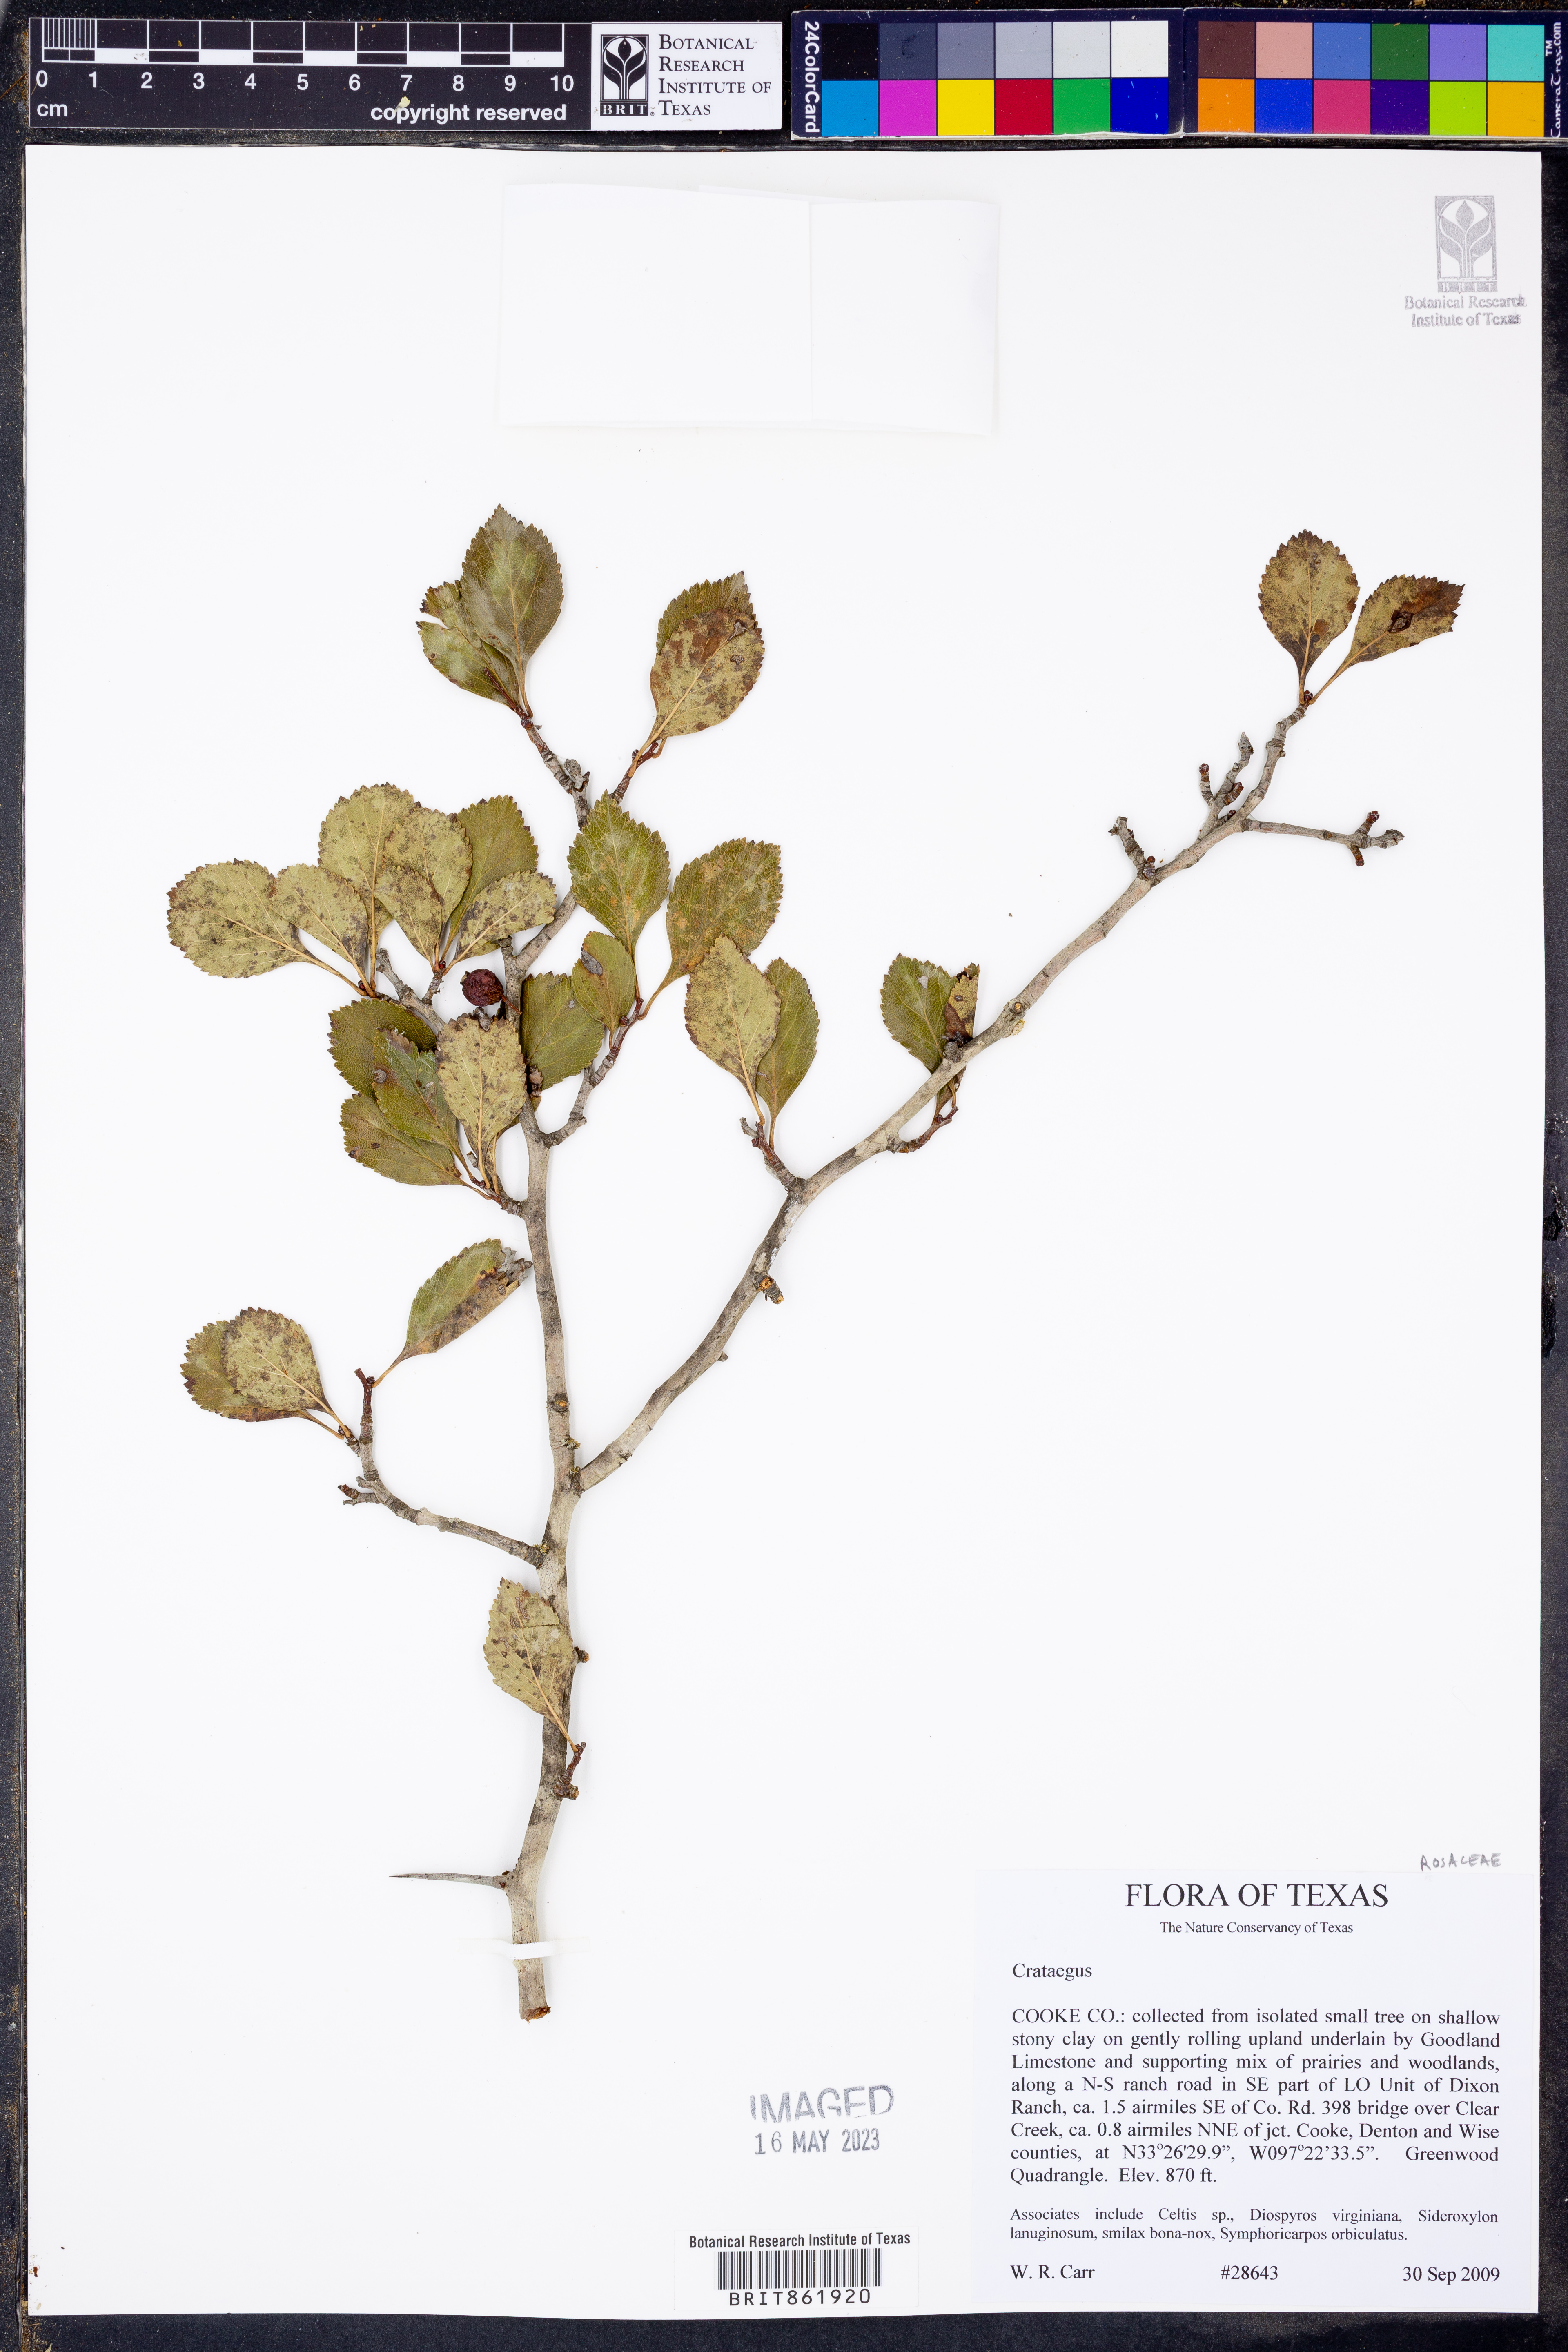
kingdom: Plantae
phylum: Tracheophyta
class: Magnoliopsida
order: Rosales
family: Rosaceae
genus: Crataegus
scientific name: Crataegus reverchonii
